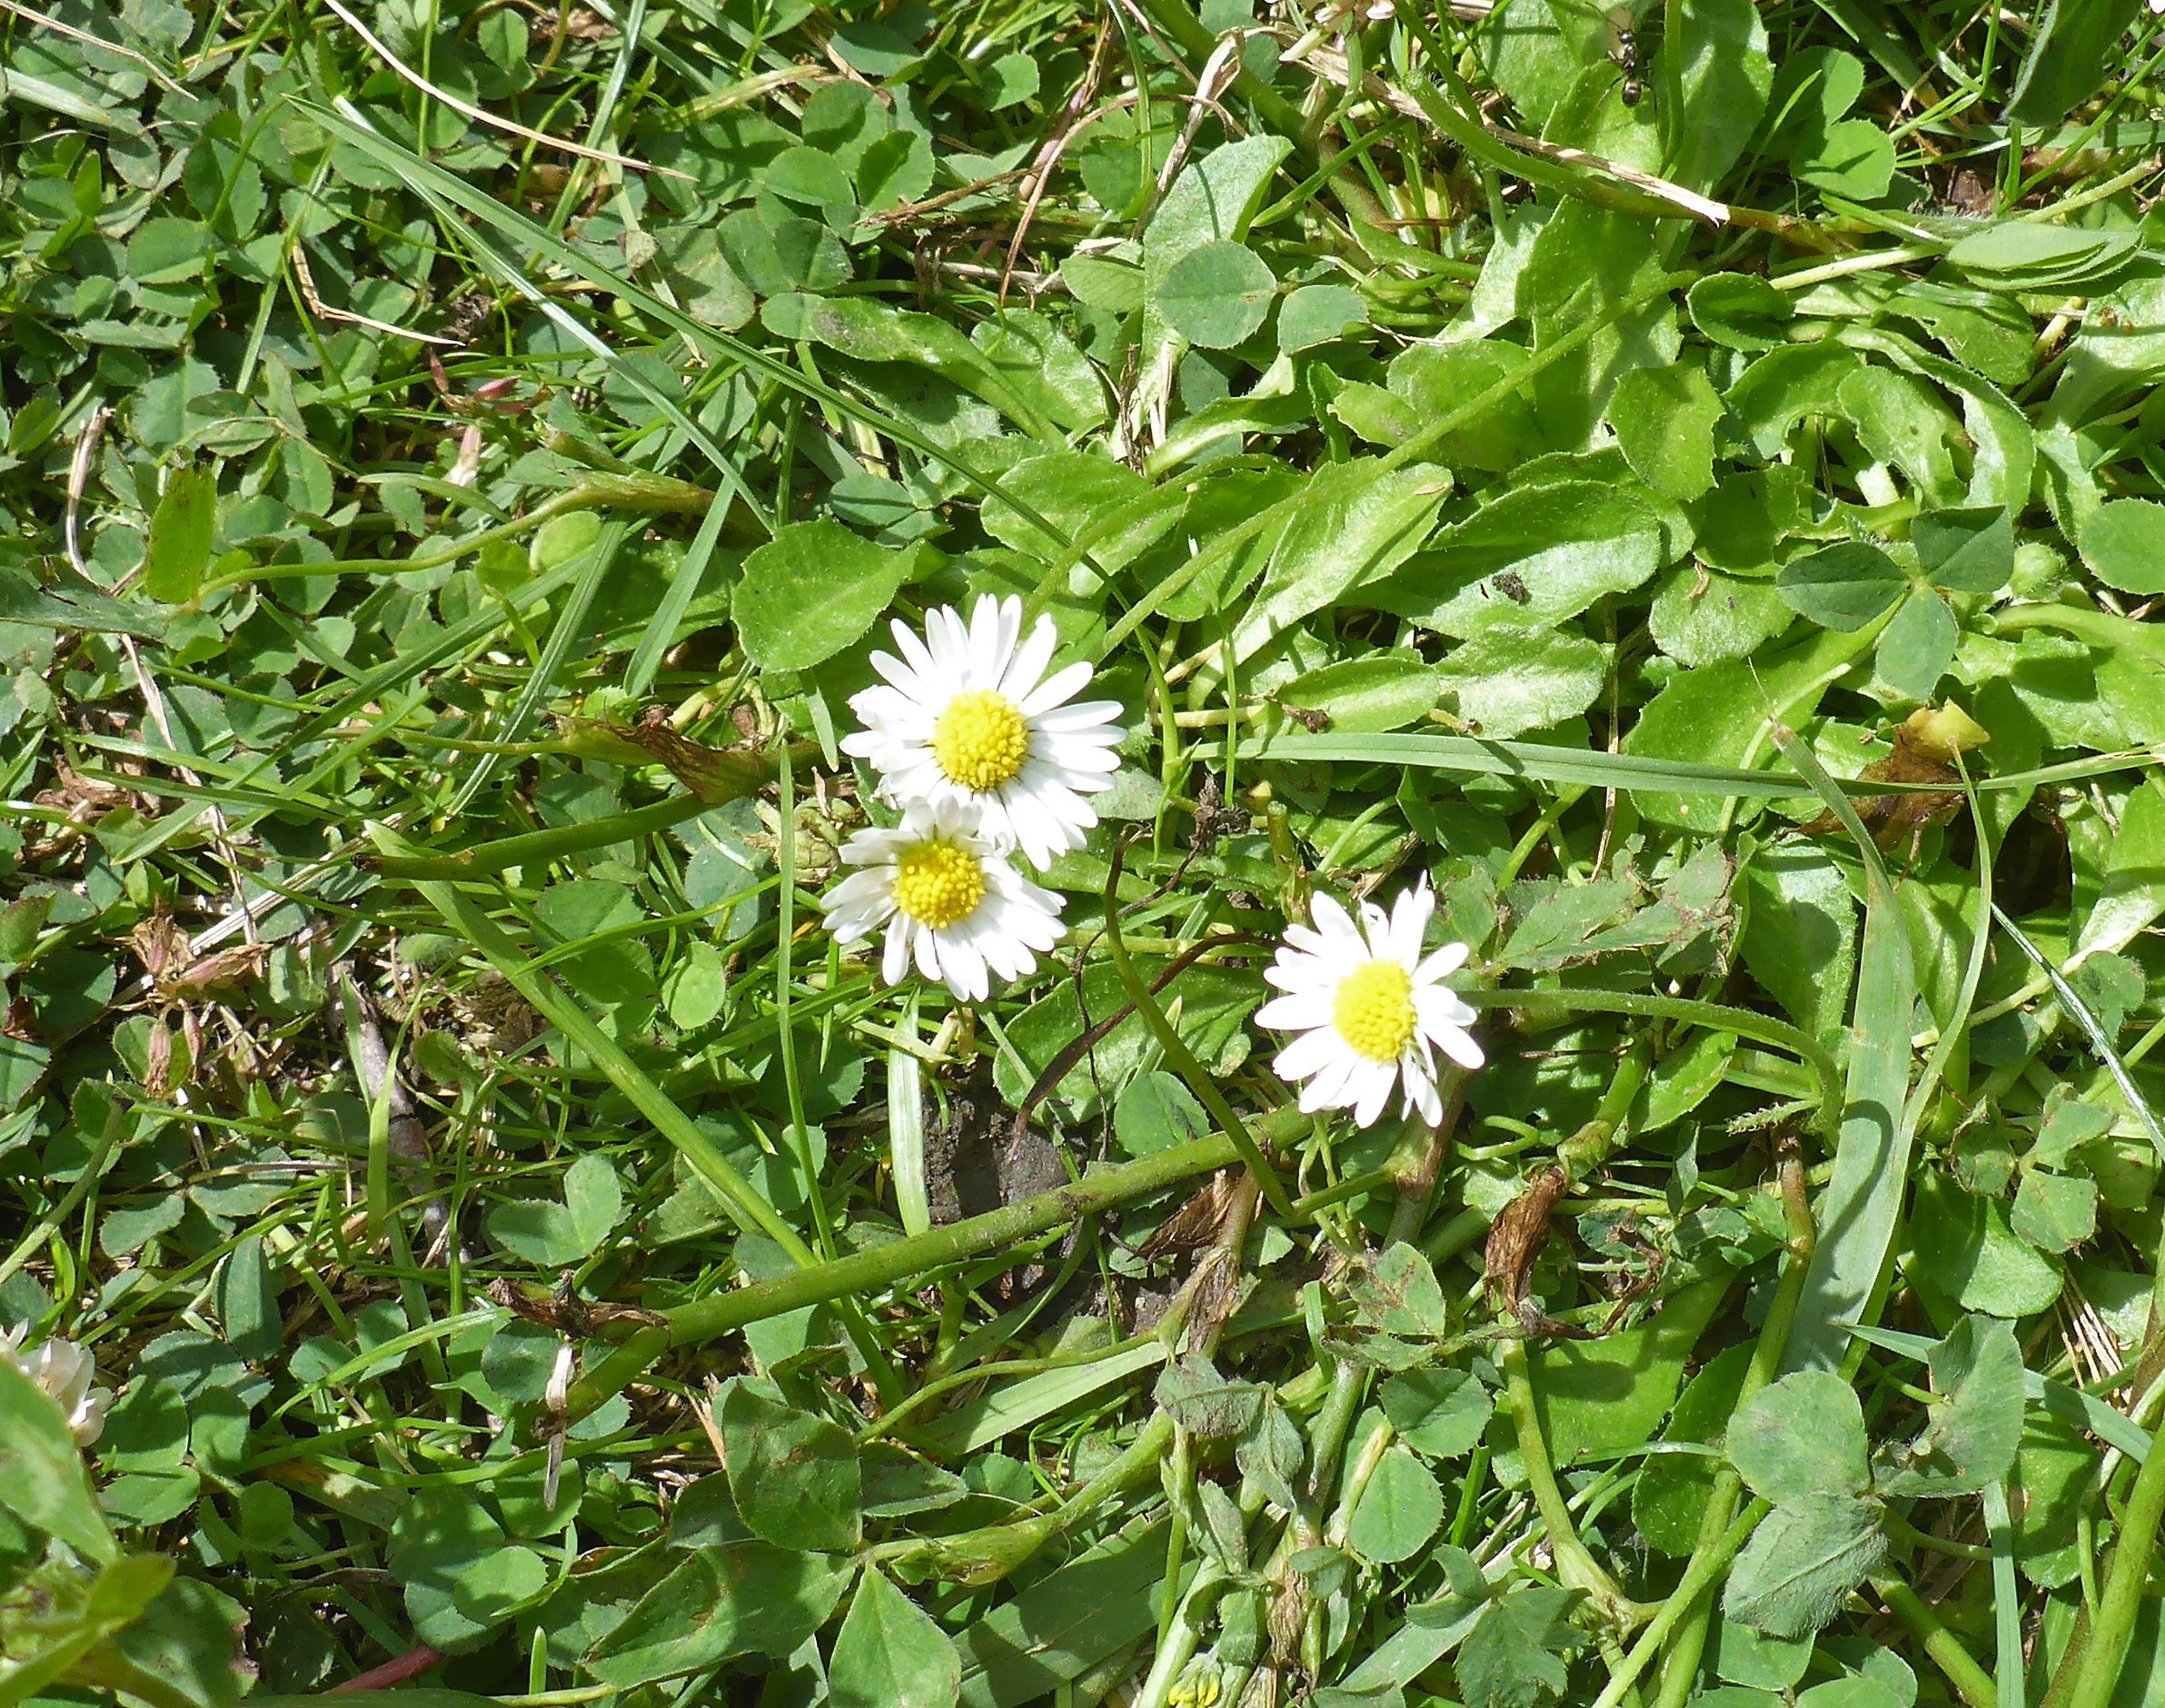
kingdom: Plantae
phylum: Tracheophyta
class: Magnoliopsida
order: Asterales
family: Asteraceae
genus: Bellis
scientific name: Bellis perennis
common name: Tusindfryd
